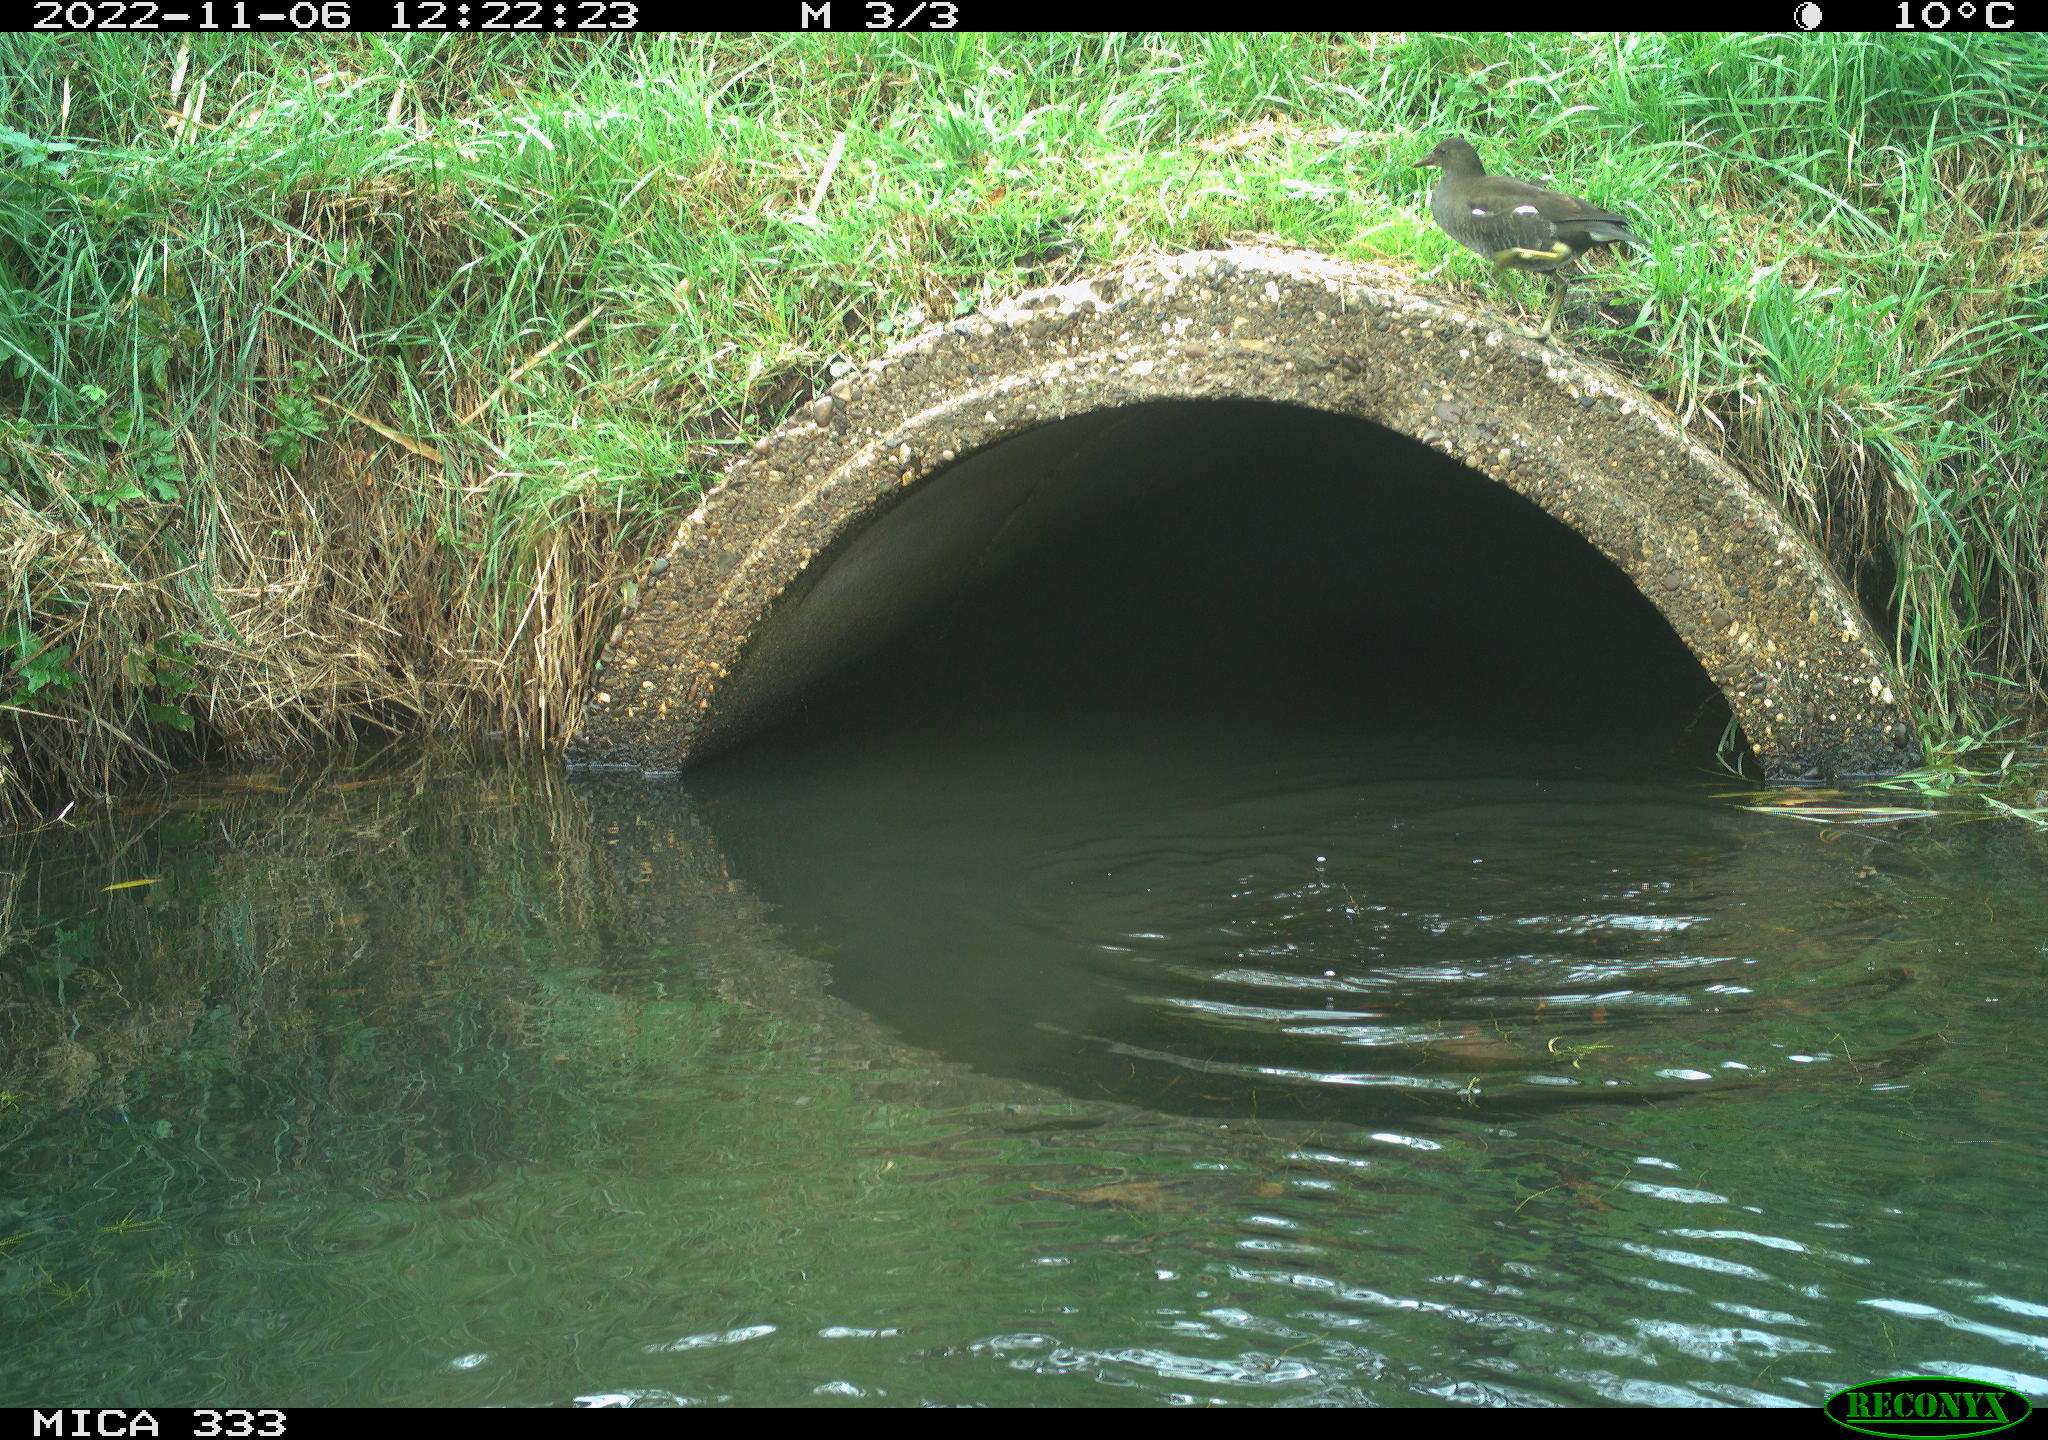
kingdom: Animalia
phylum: Chordata
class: Aves
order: Gruiformes
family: Rallidae
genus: Gallinula
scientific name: Gallinula chloropus
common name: Common moorhen
